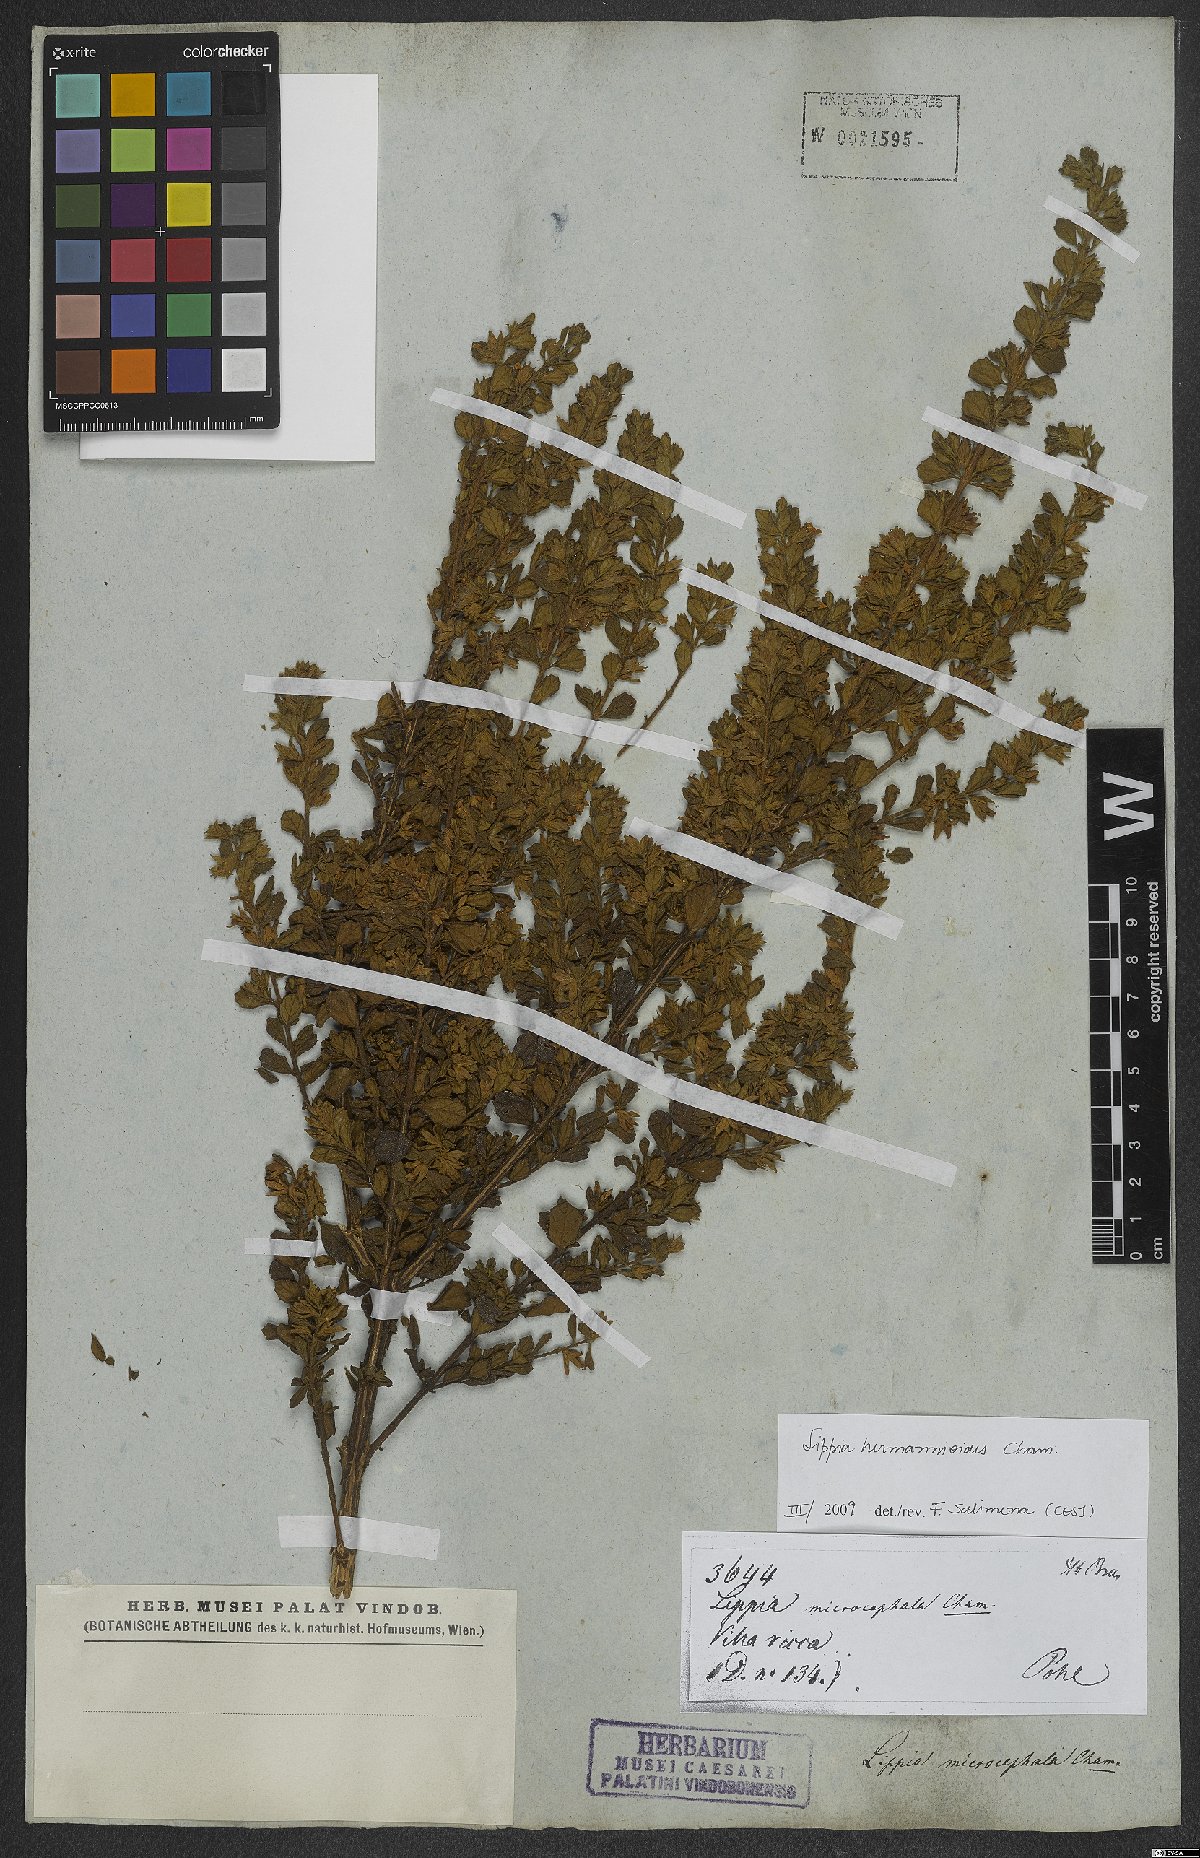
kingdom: Plantae
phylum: Tracheophyta
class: Magnoliopsida
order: Lamiales
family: Verbenaceae
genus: Lippia
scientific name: Lippia hermannioides
